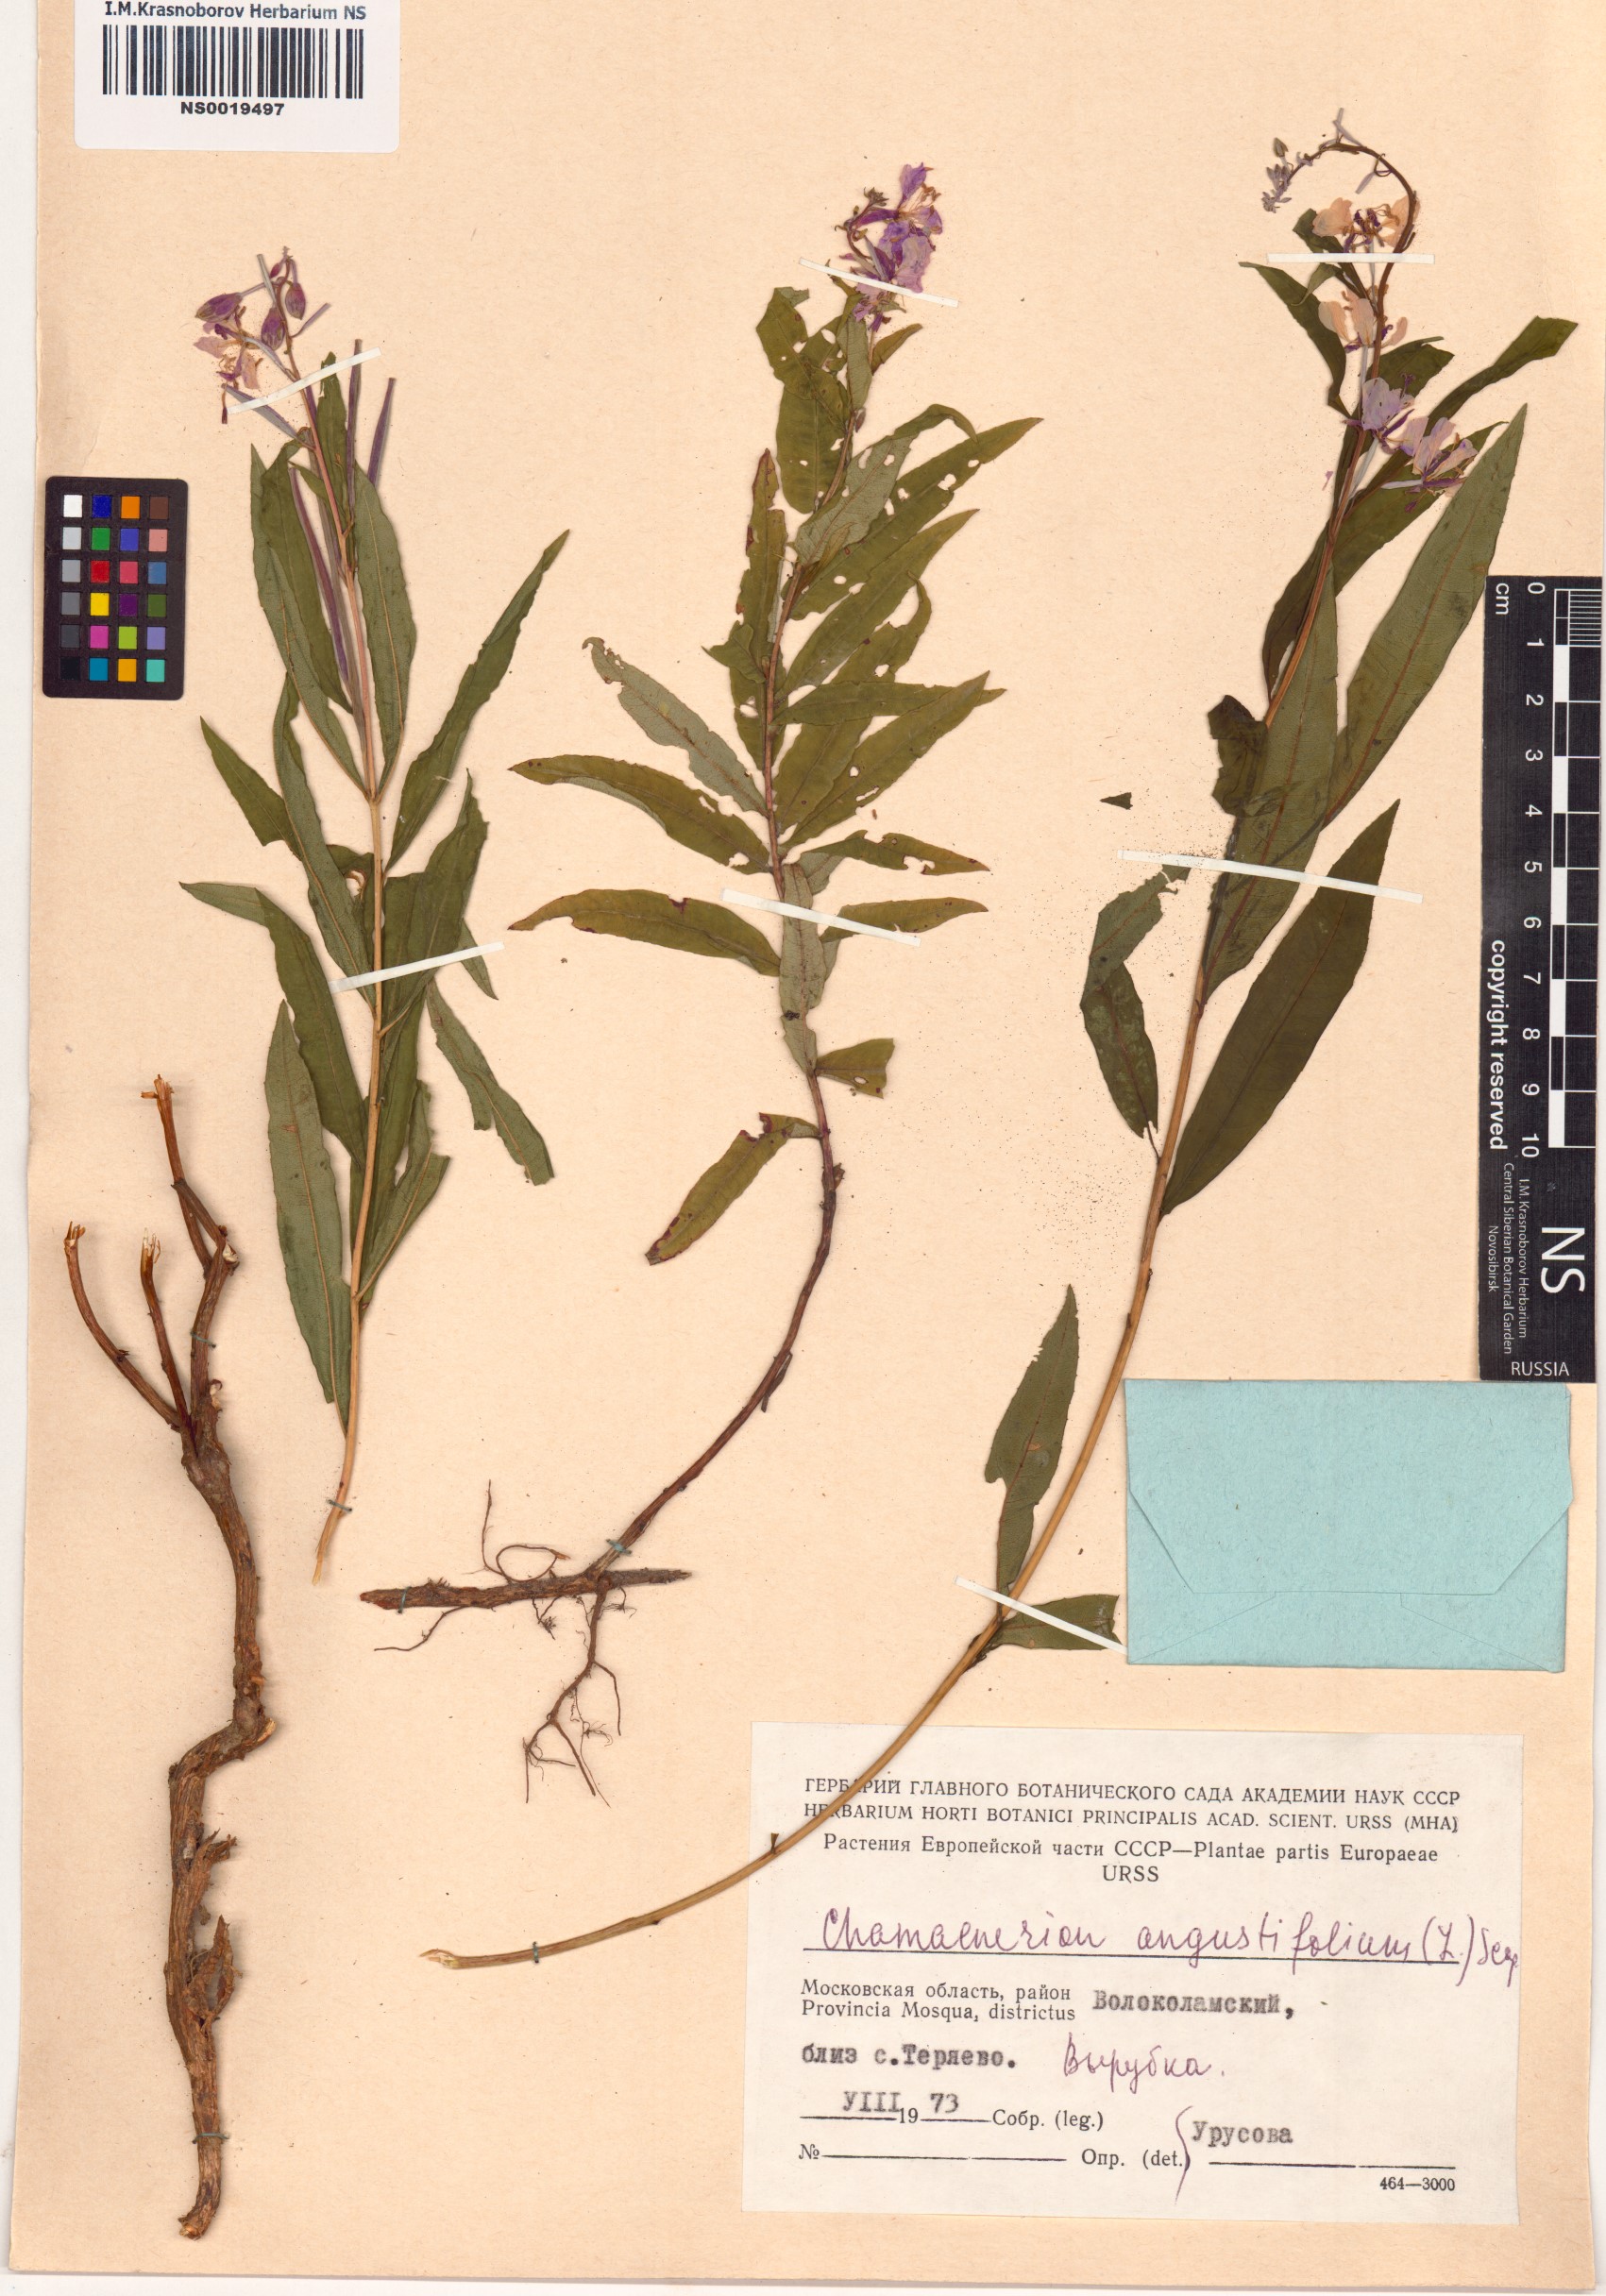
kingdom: Plantae
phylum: Tracheophyta
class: Magnoliopsida
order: Myrtales
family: Onagraceae
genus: Chamaenerion
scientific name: Chamaenerion angustifolium
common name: Fireweed
